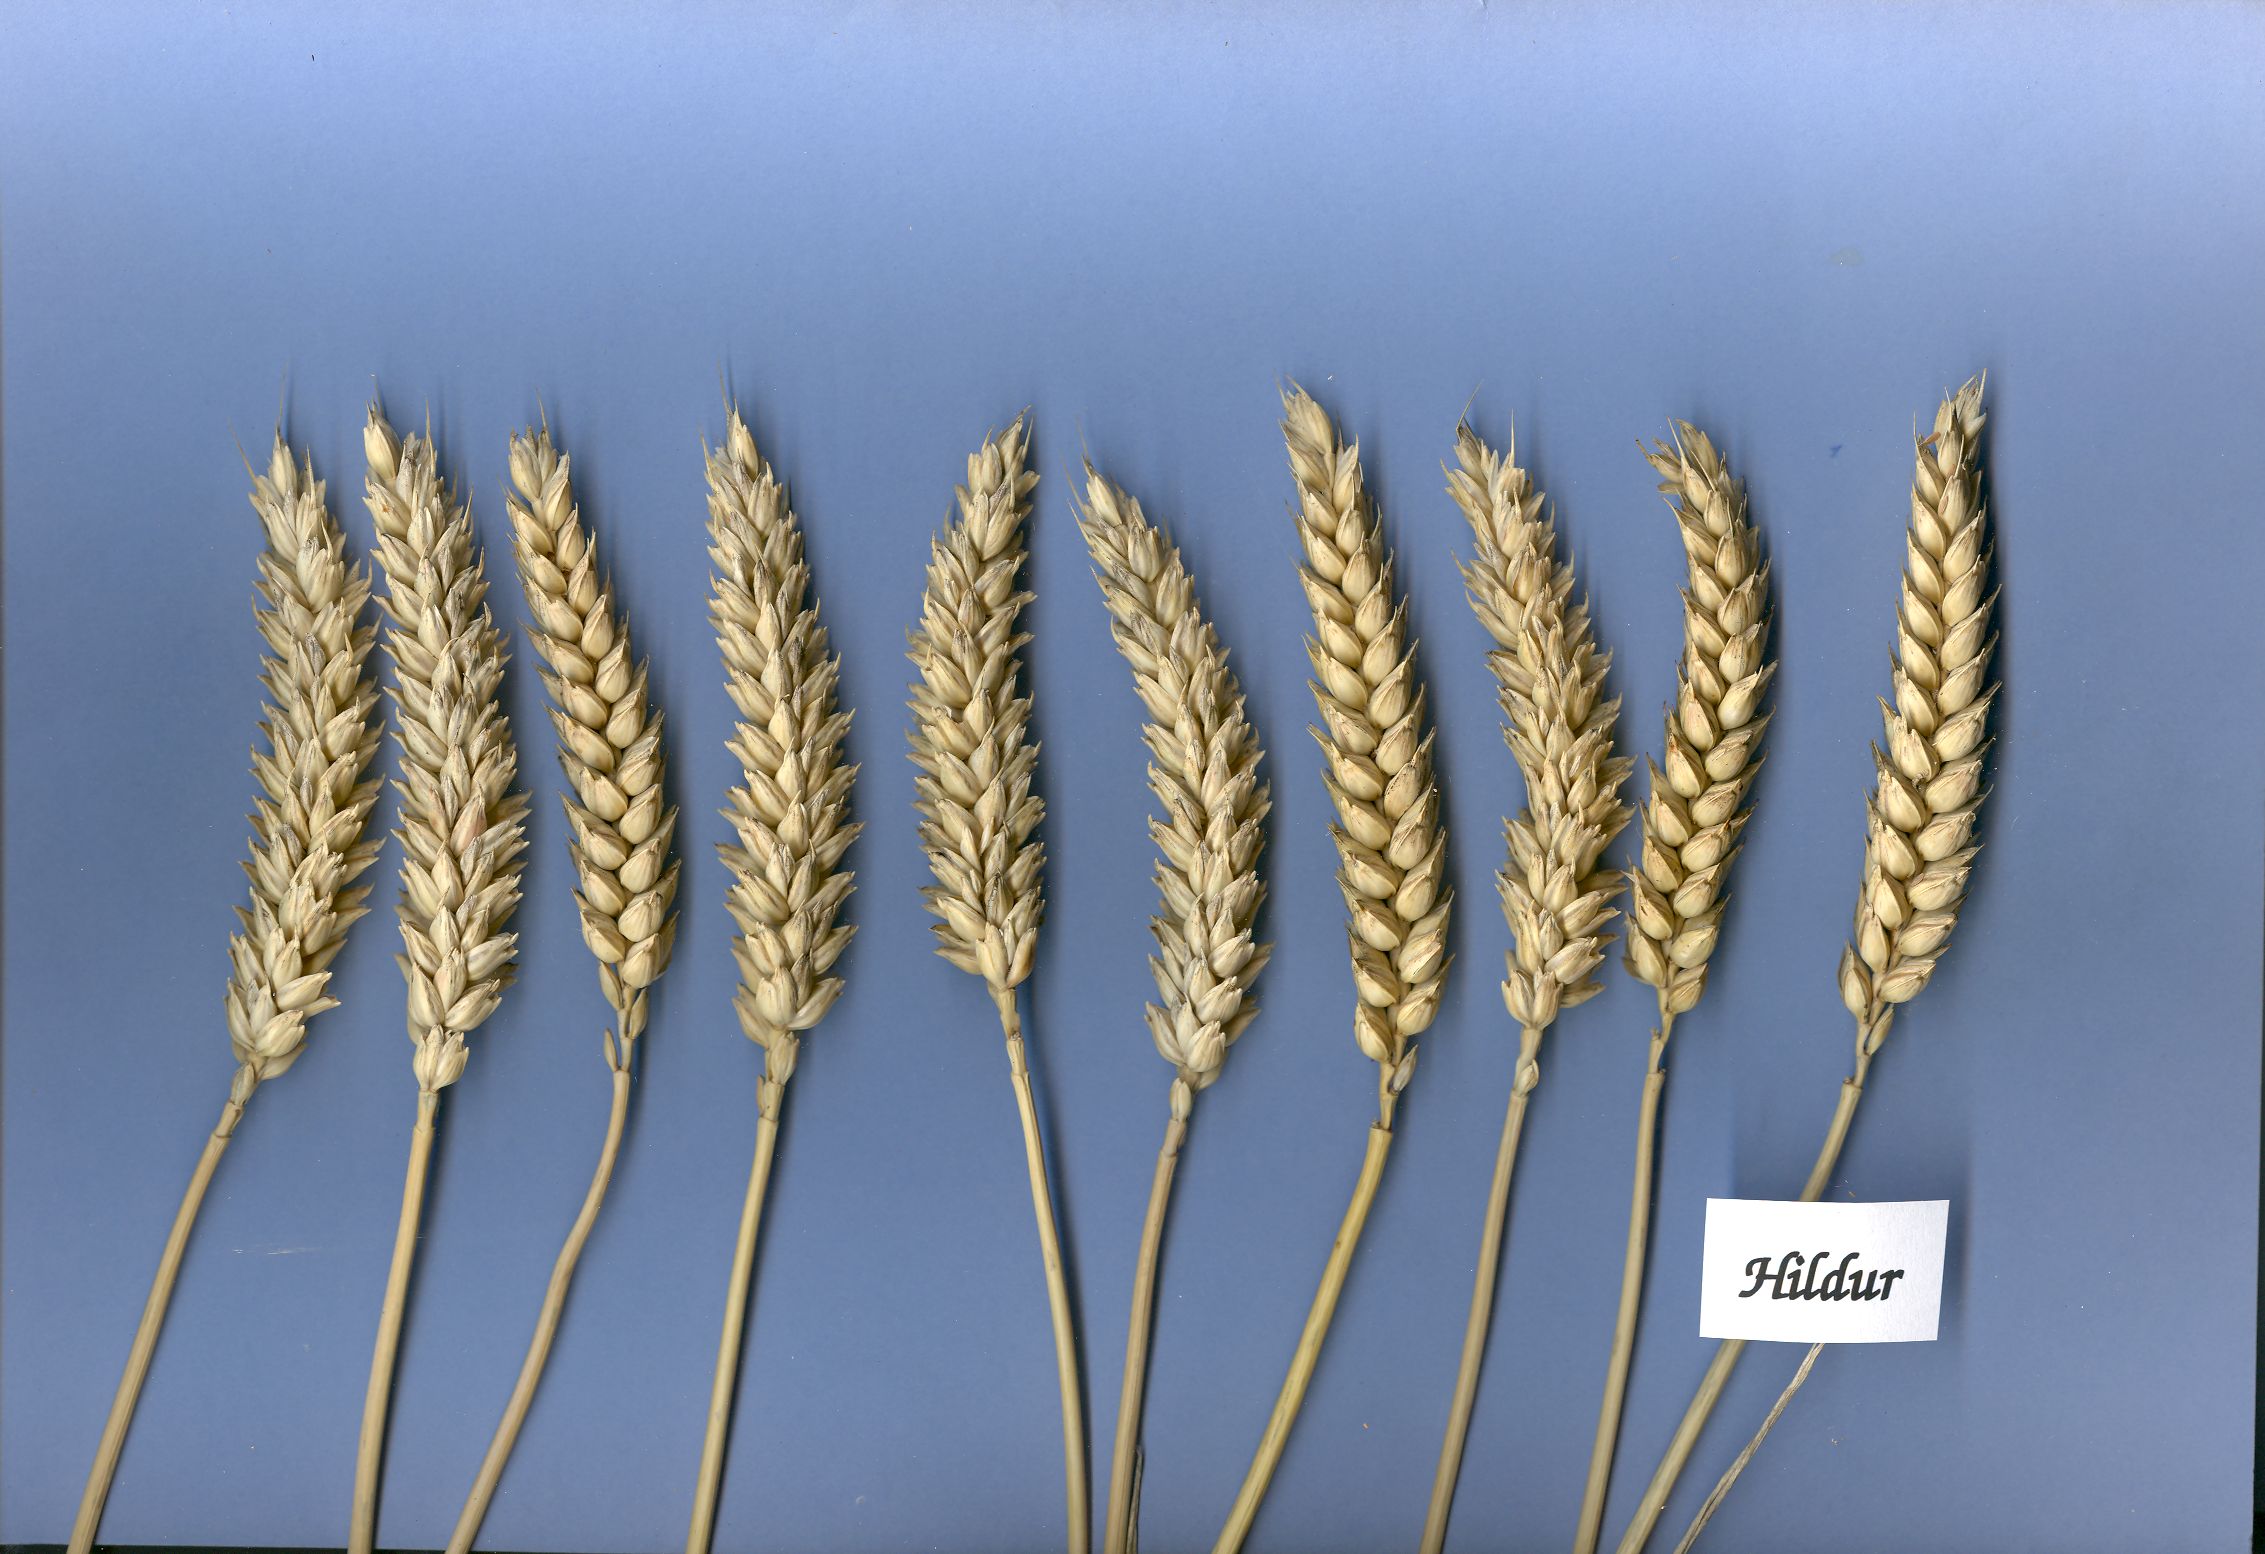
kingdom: Plantae
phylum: Tracheophyta
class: Liliopsida
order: Poales
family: Poaceae
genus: Triticum
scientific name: Triticum aestivum
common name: Common wheat
